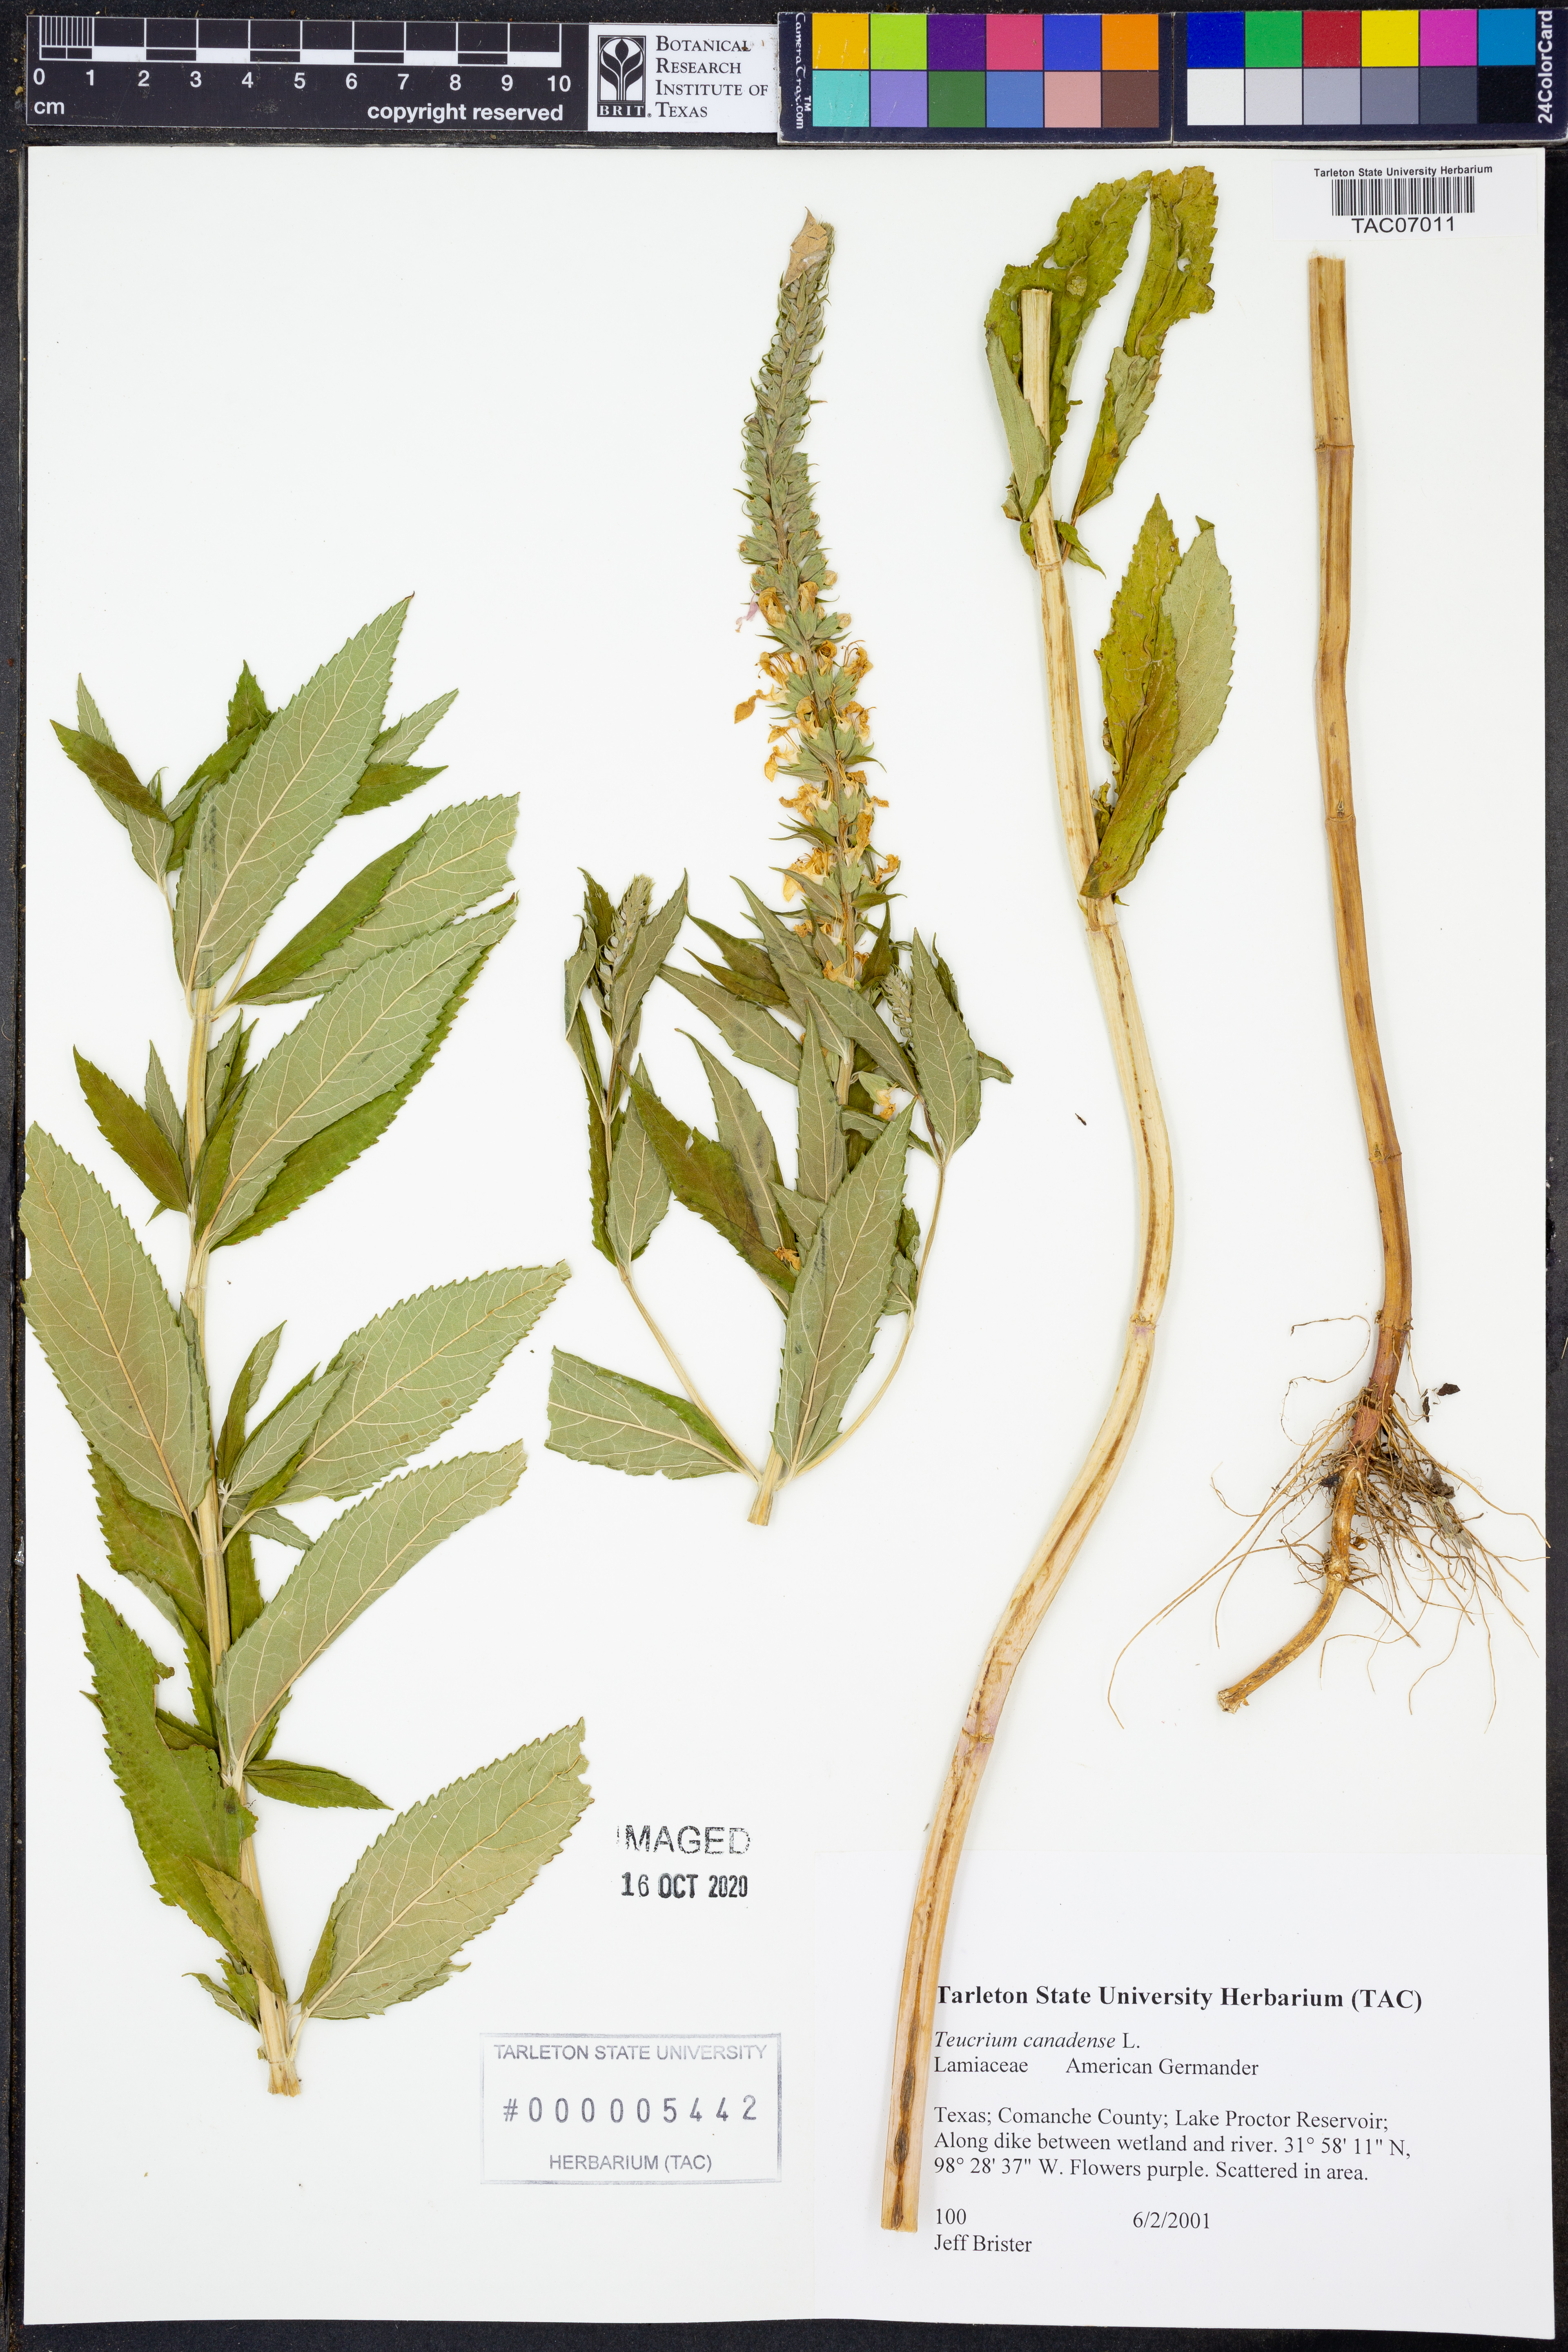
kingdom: Plantae
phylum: Tracheophyta
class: Magnoliopsida
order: Lamiales
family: Lamiaceae
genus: Teucrium
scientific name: Teucrium canadense
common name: American germander
